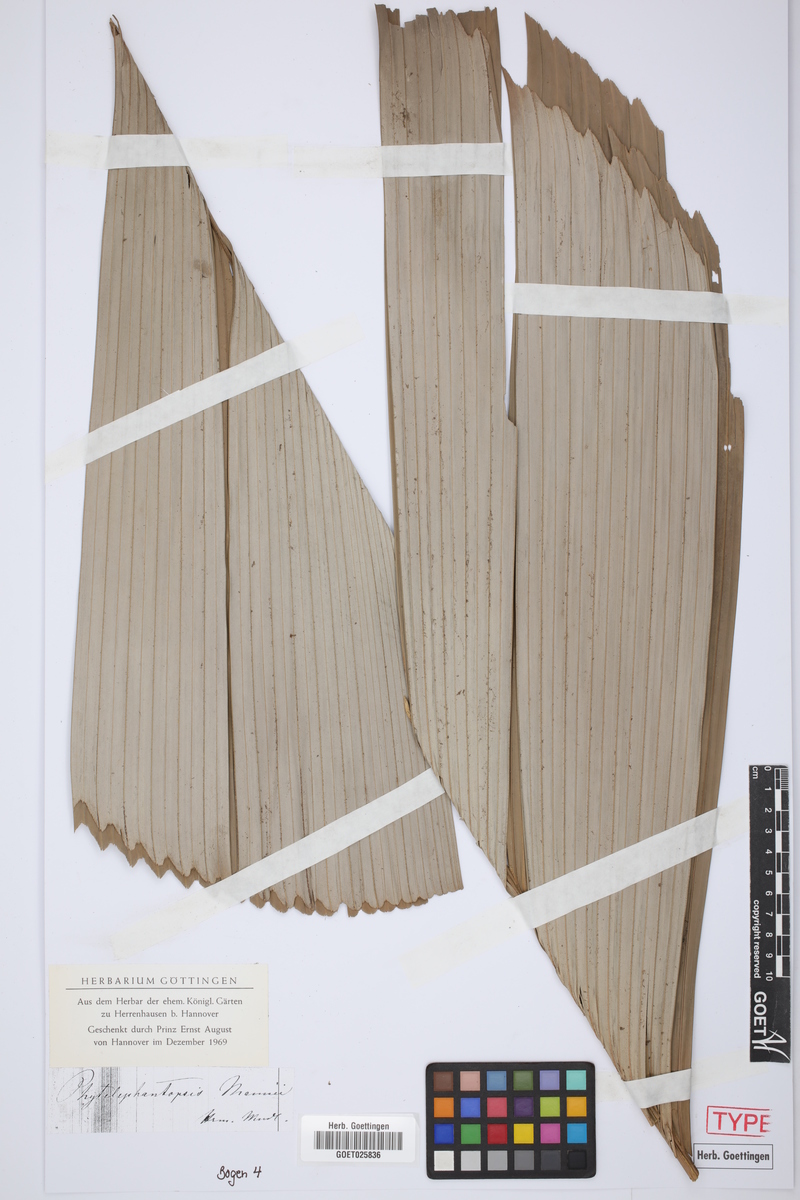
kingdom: Plantae
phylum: Tracheophyta
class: Liliopsida
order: Arecales
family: Arecaceae
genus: Sclerosperma
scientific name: Sclerosperma mannii
